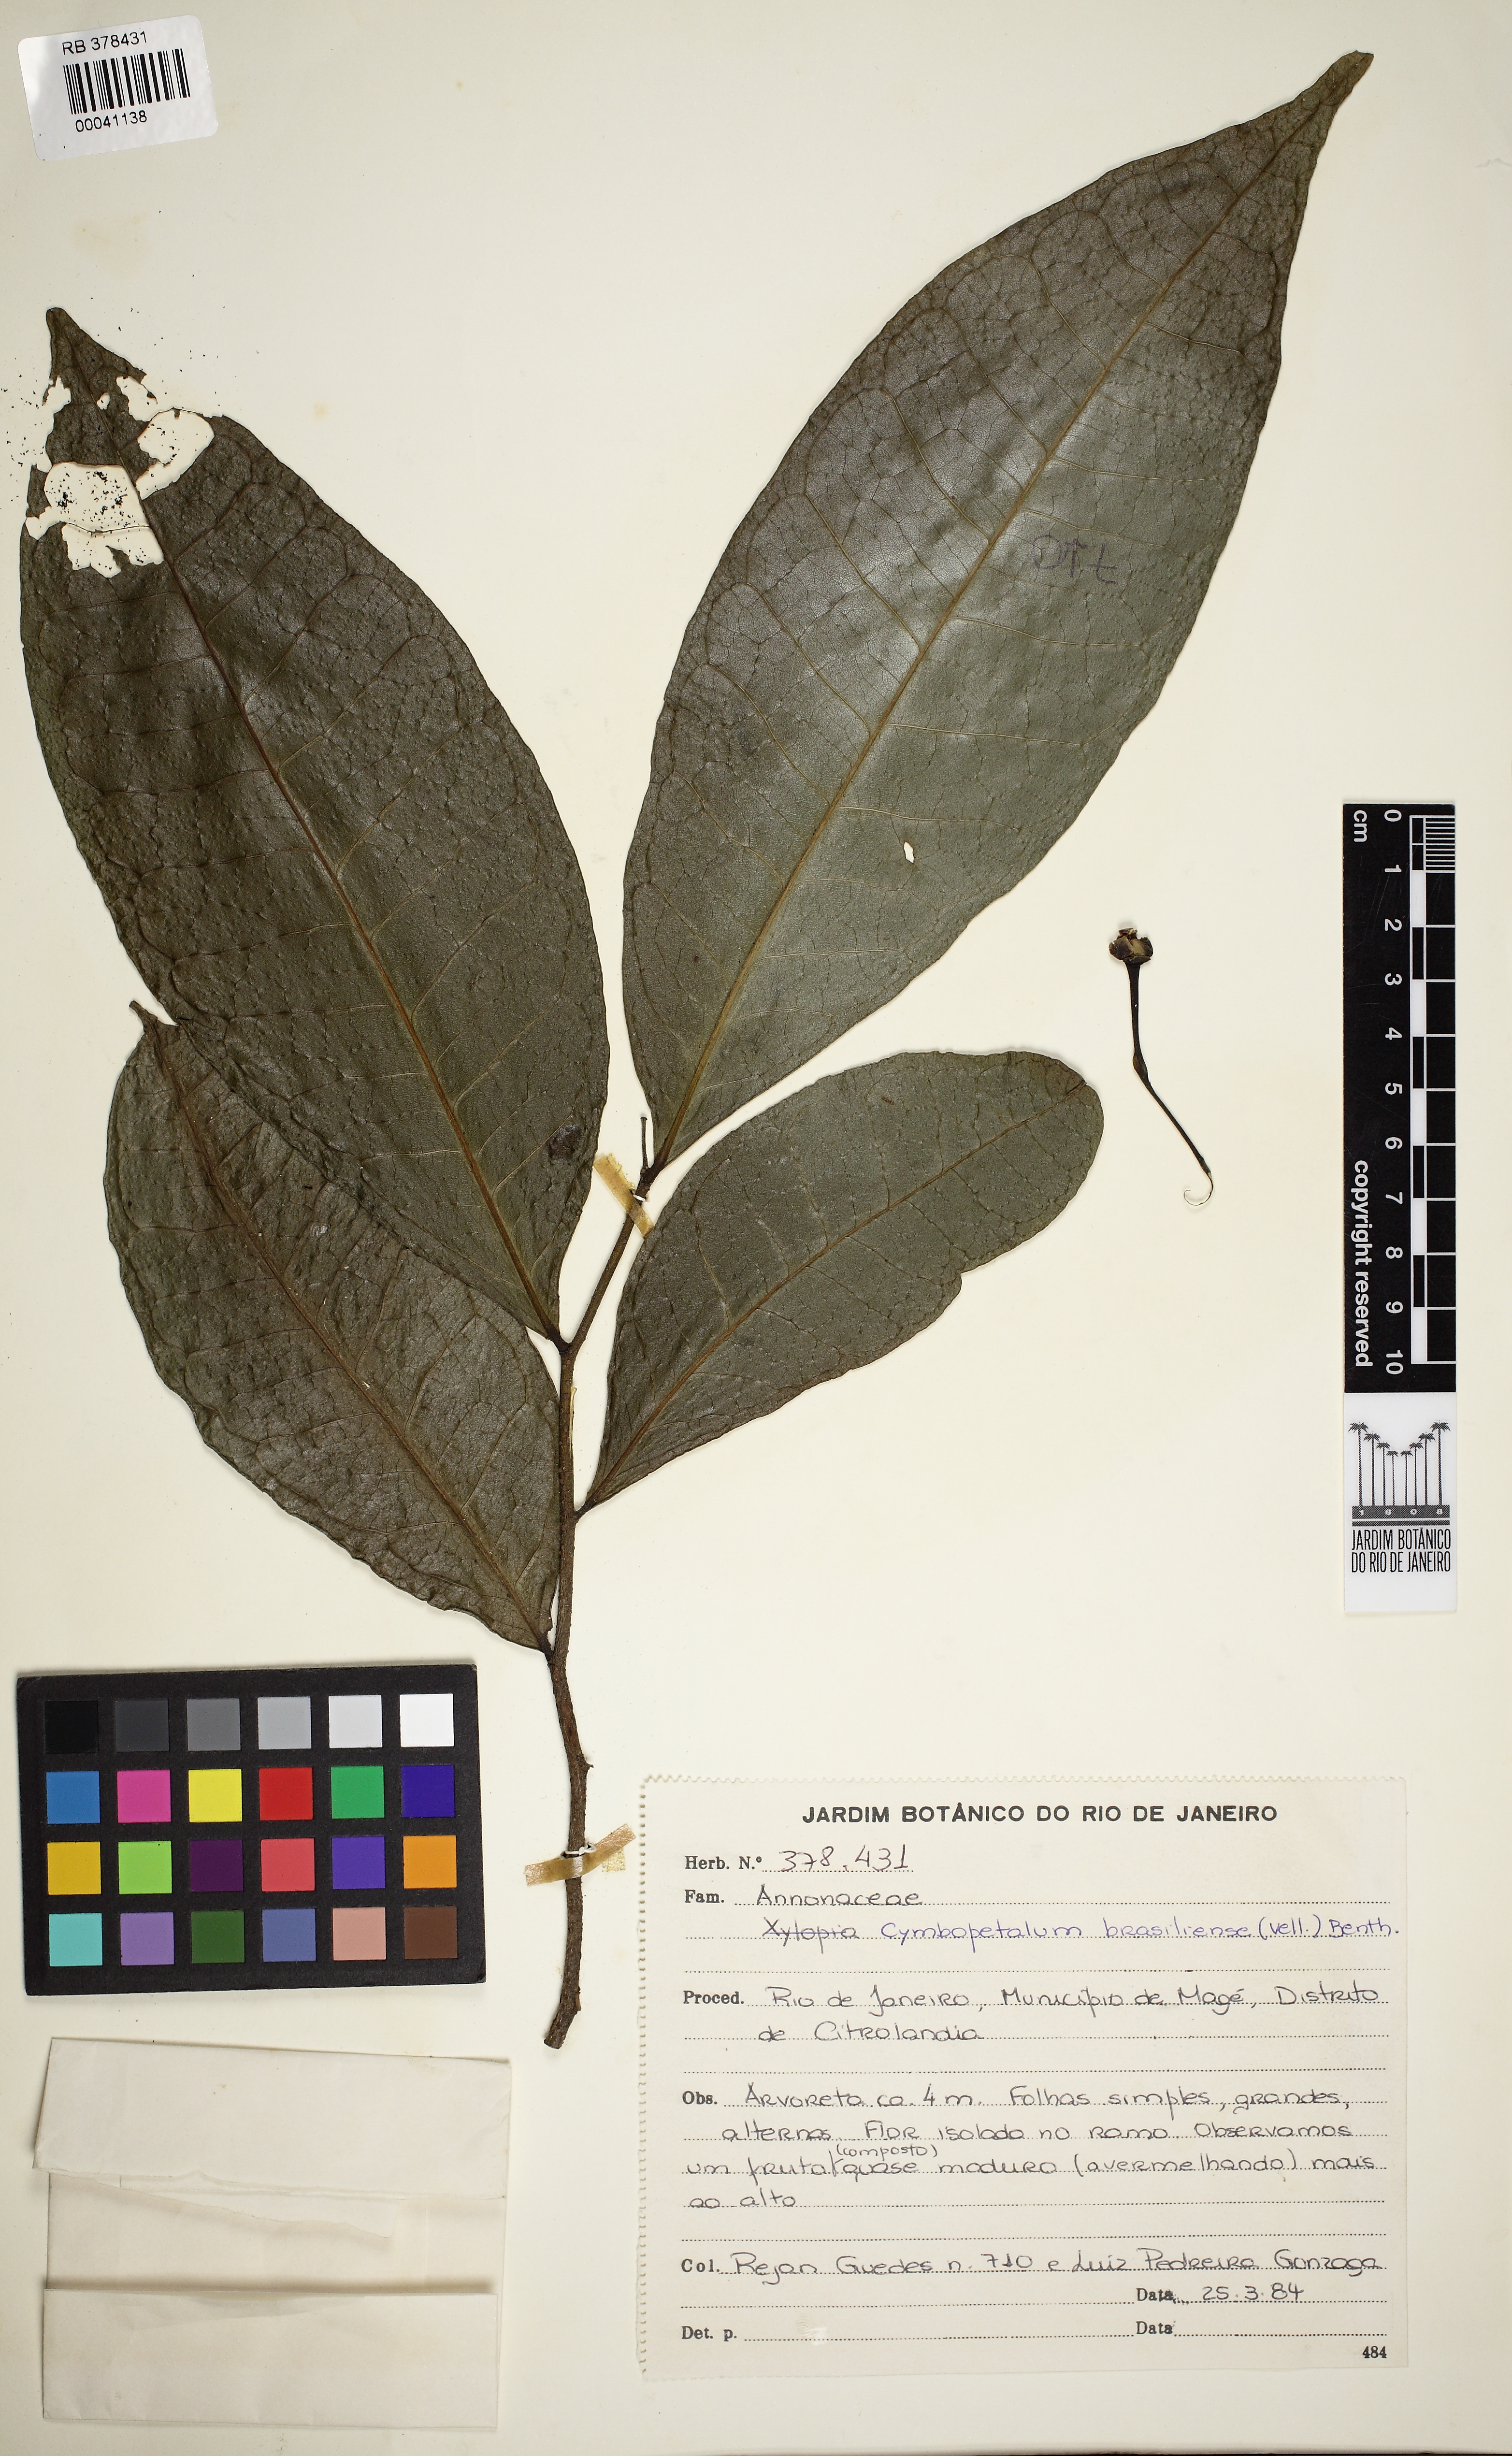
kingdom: Plantae
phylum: Tracheophyta
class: Magnoliopsida
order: Magnoliales
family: Annonaceae
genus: Cymbopetalum
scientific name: Cymbopetalum brasiliense
